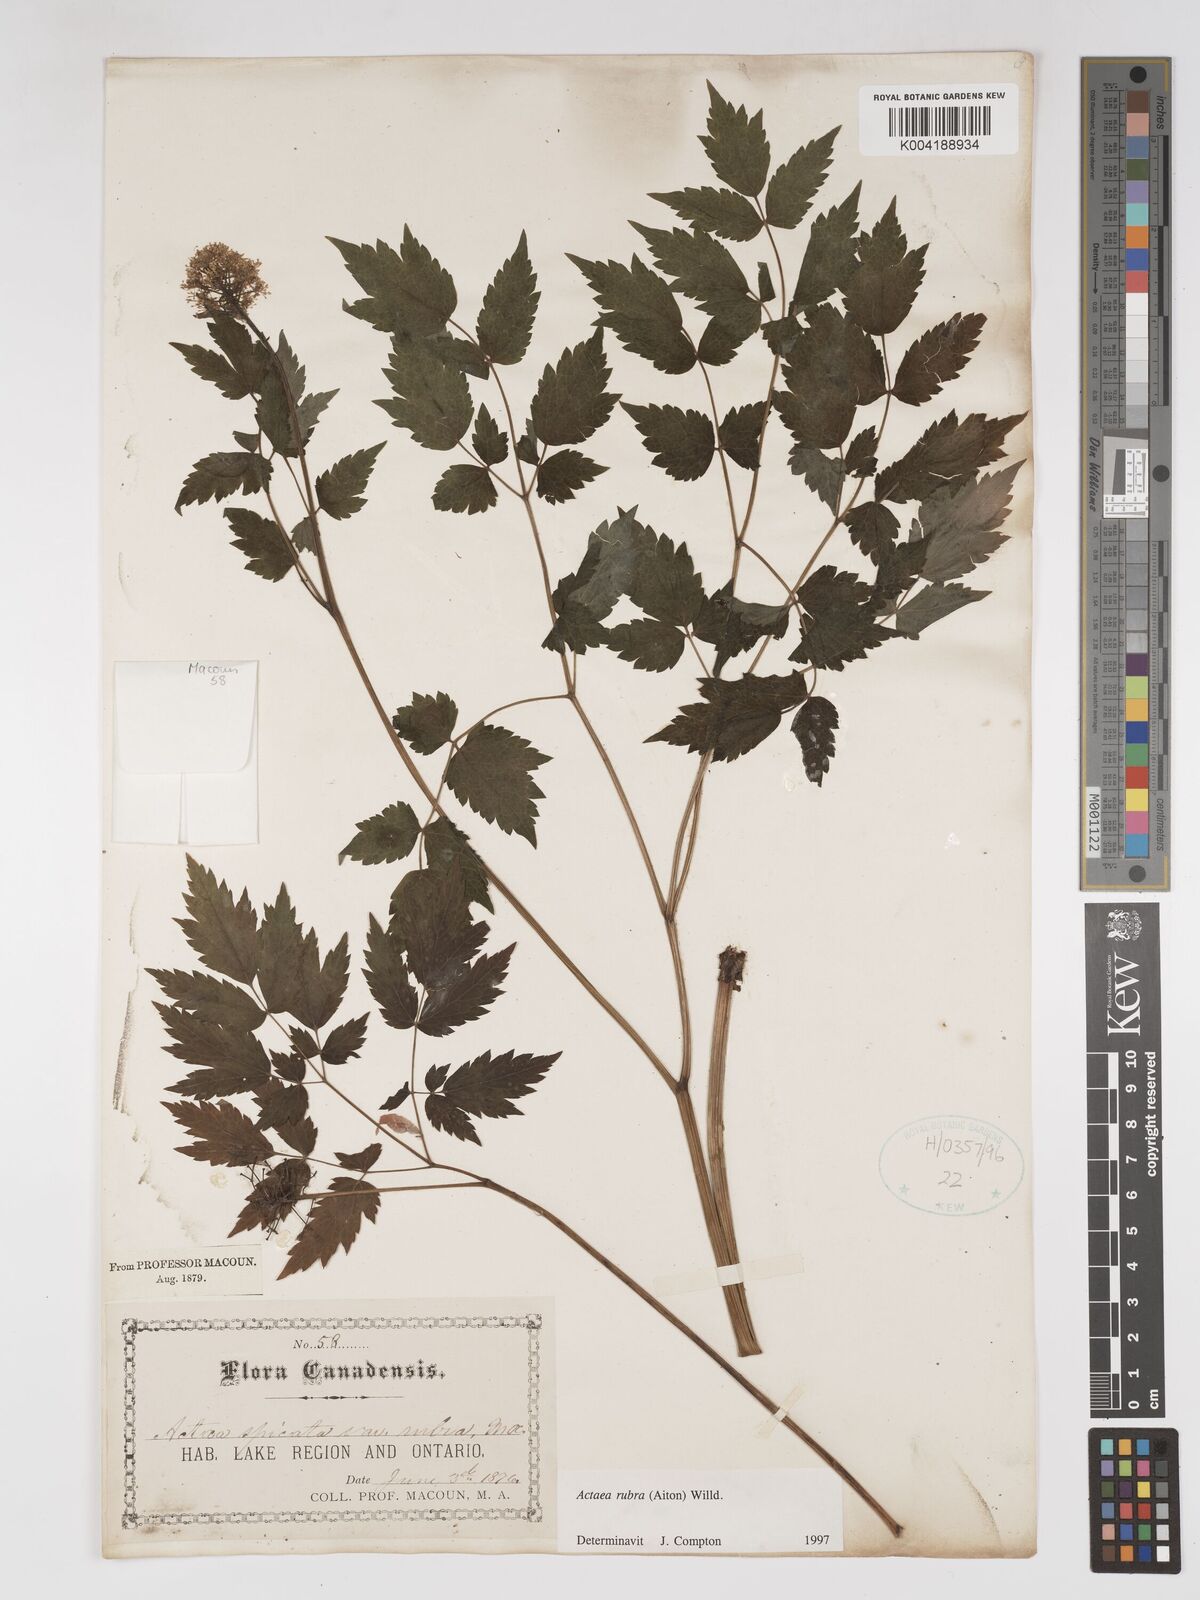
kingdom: Plantae
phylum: Tracheophyta
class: Magnoliopsida
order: Ranunculales
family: Ranunculaceae
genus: Actaea
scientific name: Actaea rubra
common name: Red baneberry
